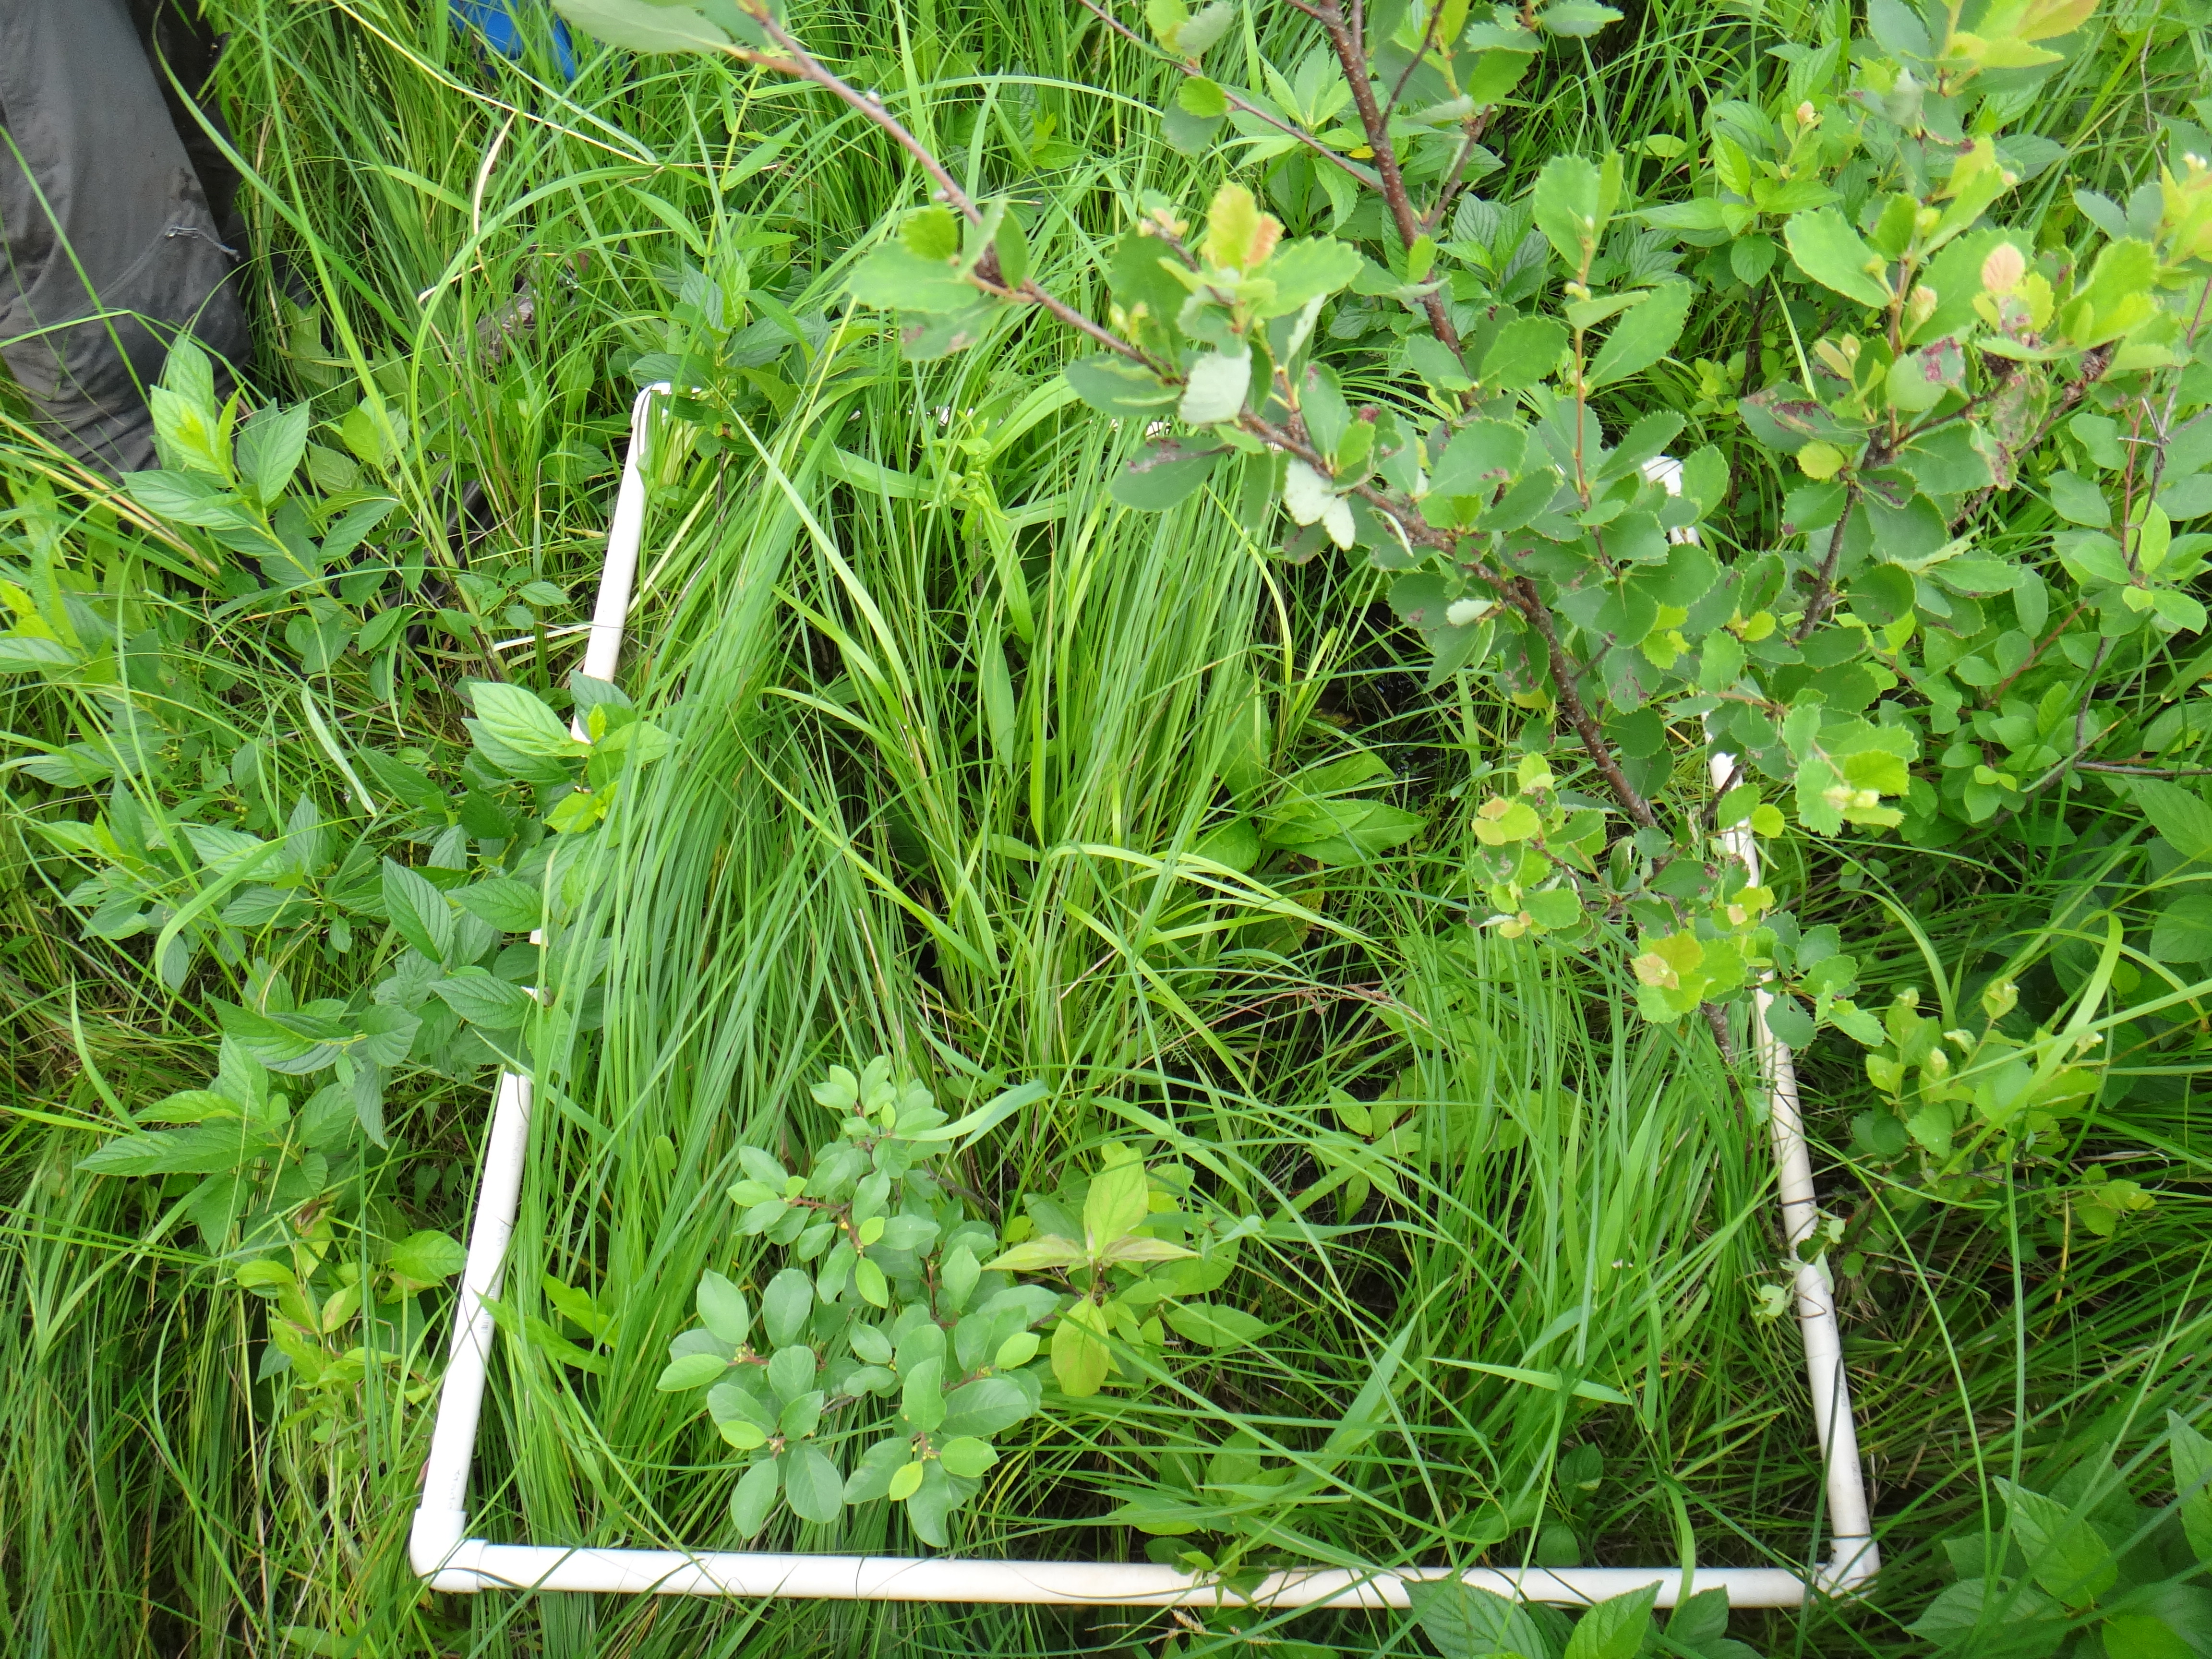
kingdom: Plantae
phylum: Tracheophyta
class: Magnoliopsida
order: Fagales
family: Betulaceae
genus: Corylus
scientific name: Corylus americana
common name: American hazel
